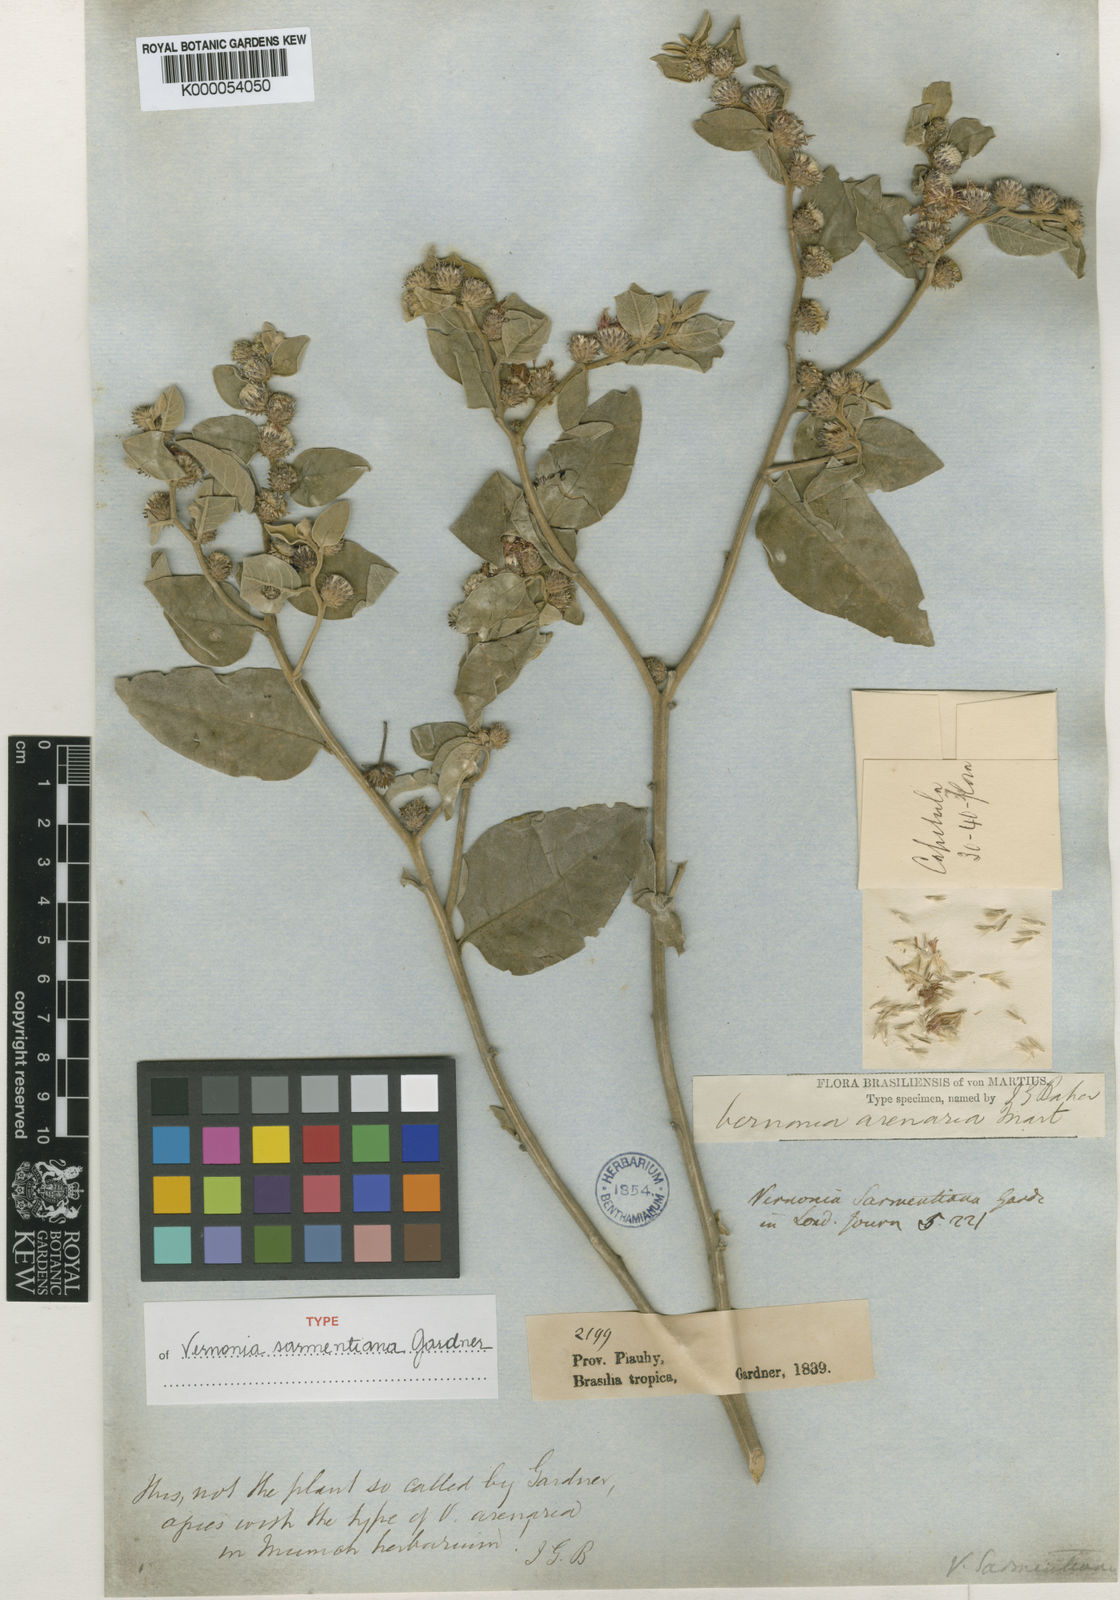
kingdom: Plantae
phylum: Tracheophyta
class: Magnoliopsida
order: Asterales
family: Asteraceae
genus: Lepidaploa
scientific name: Lepidaploa arenaria
